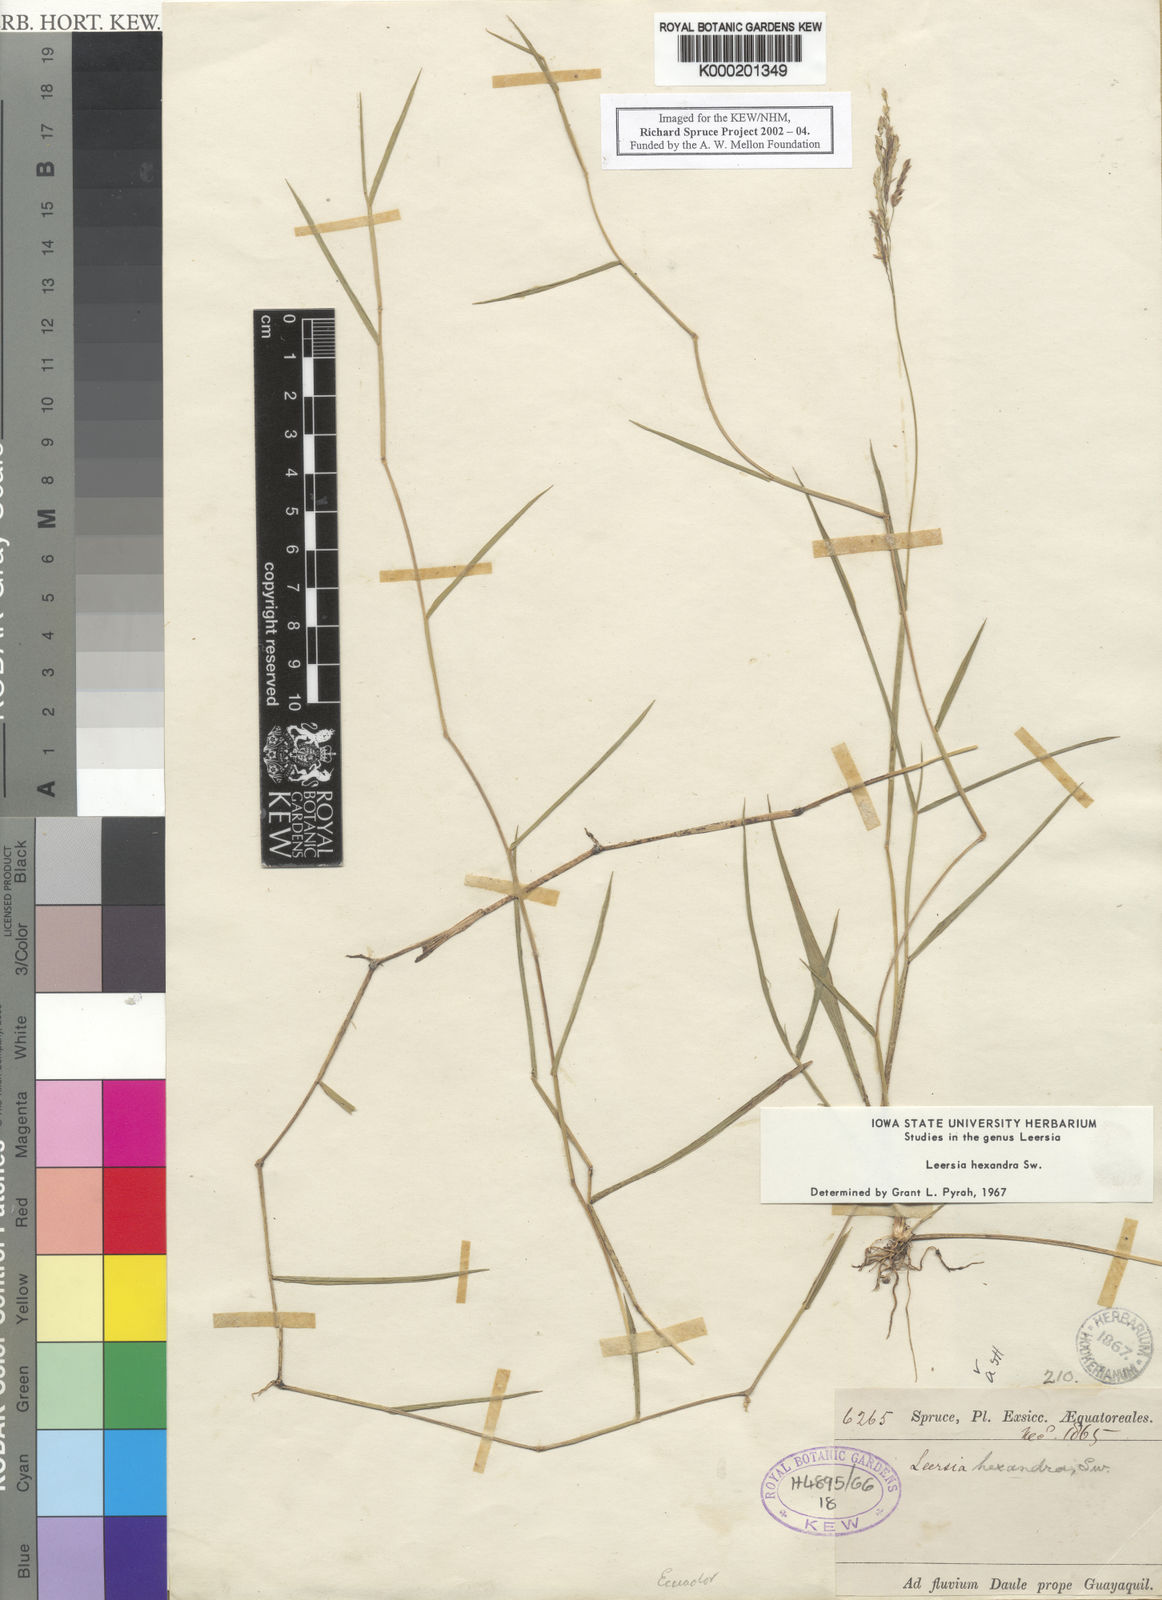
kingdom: Plantae
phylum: Tracheophyta
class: Liliopsida
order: Poales
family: Poaceae
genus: Leersia
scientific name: Leersia hexandra
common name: Southern cut grass
